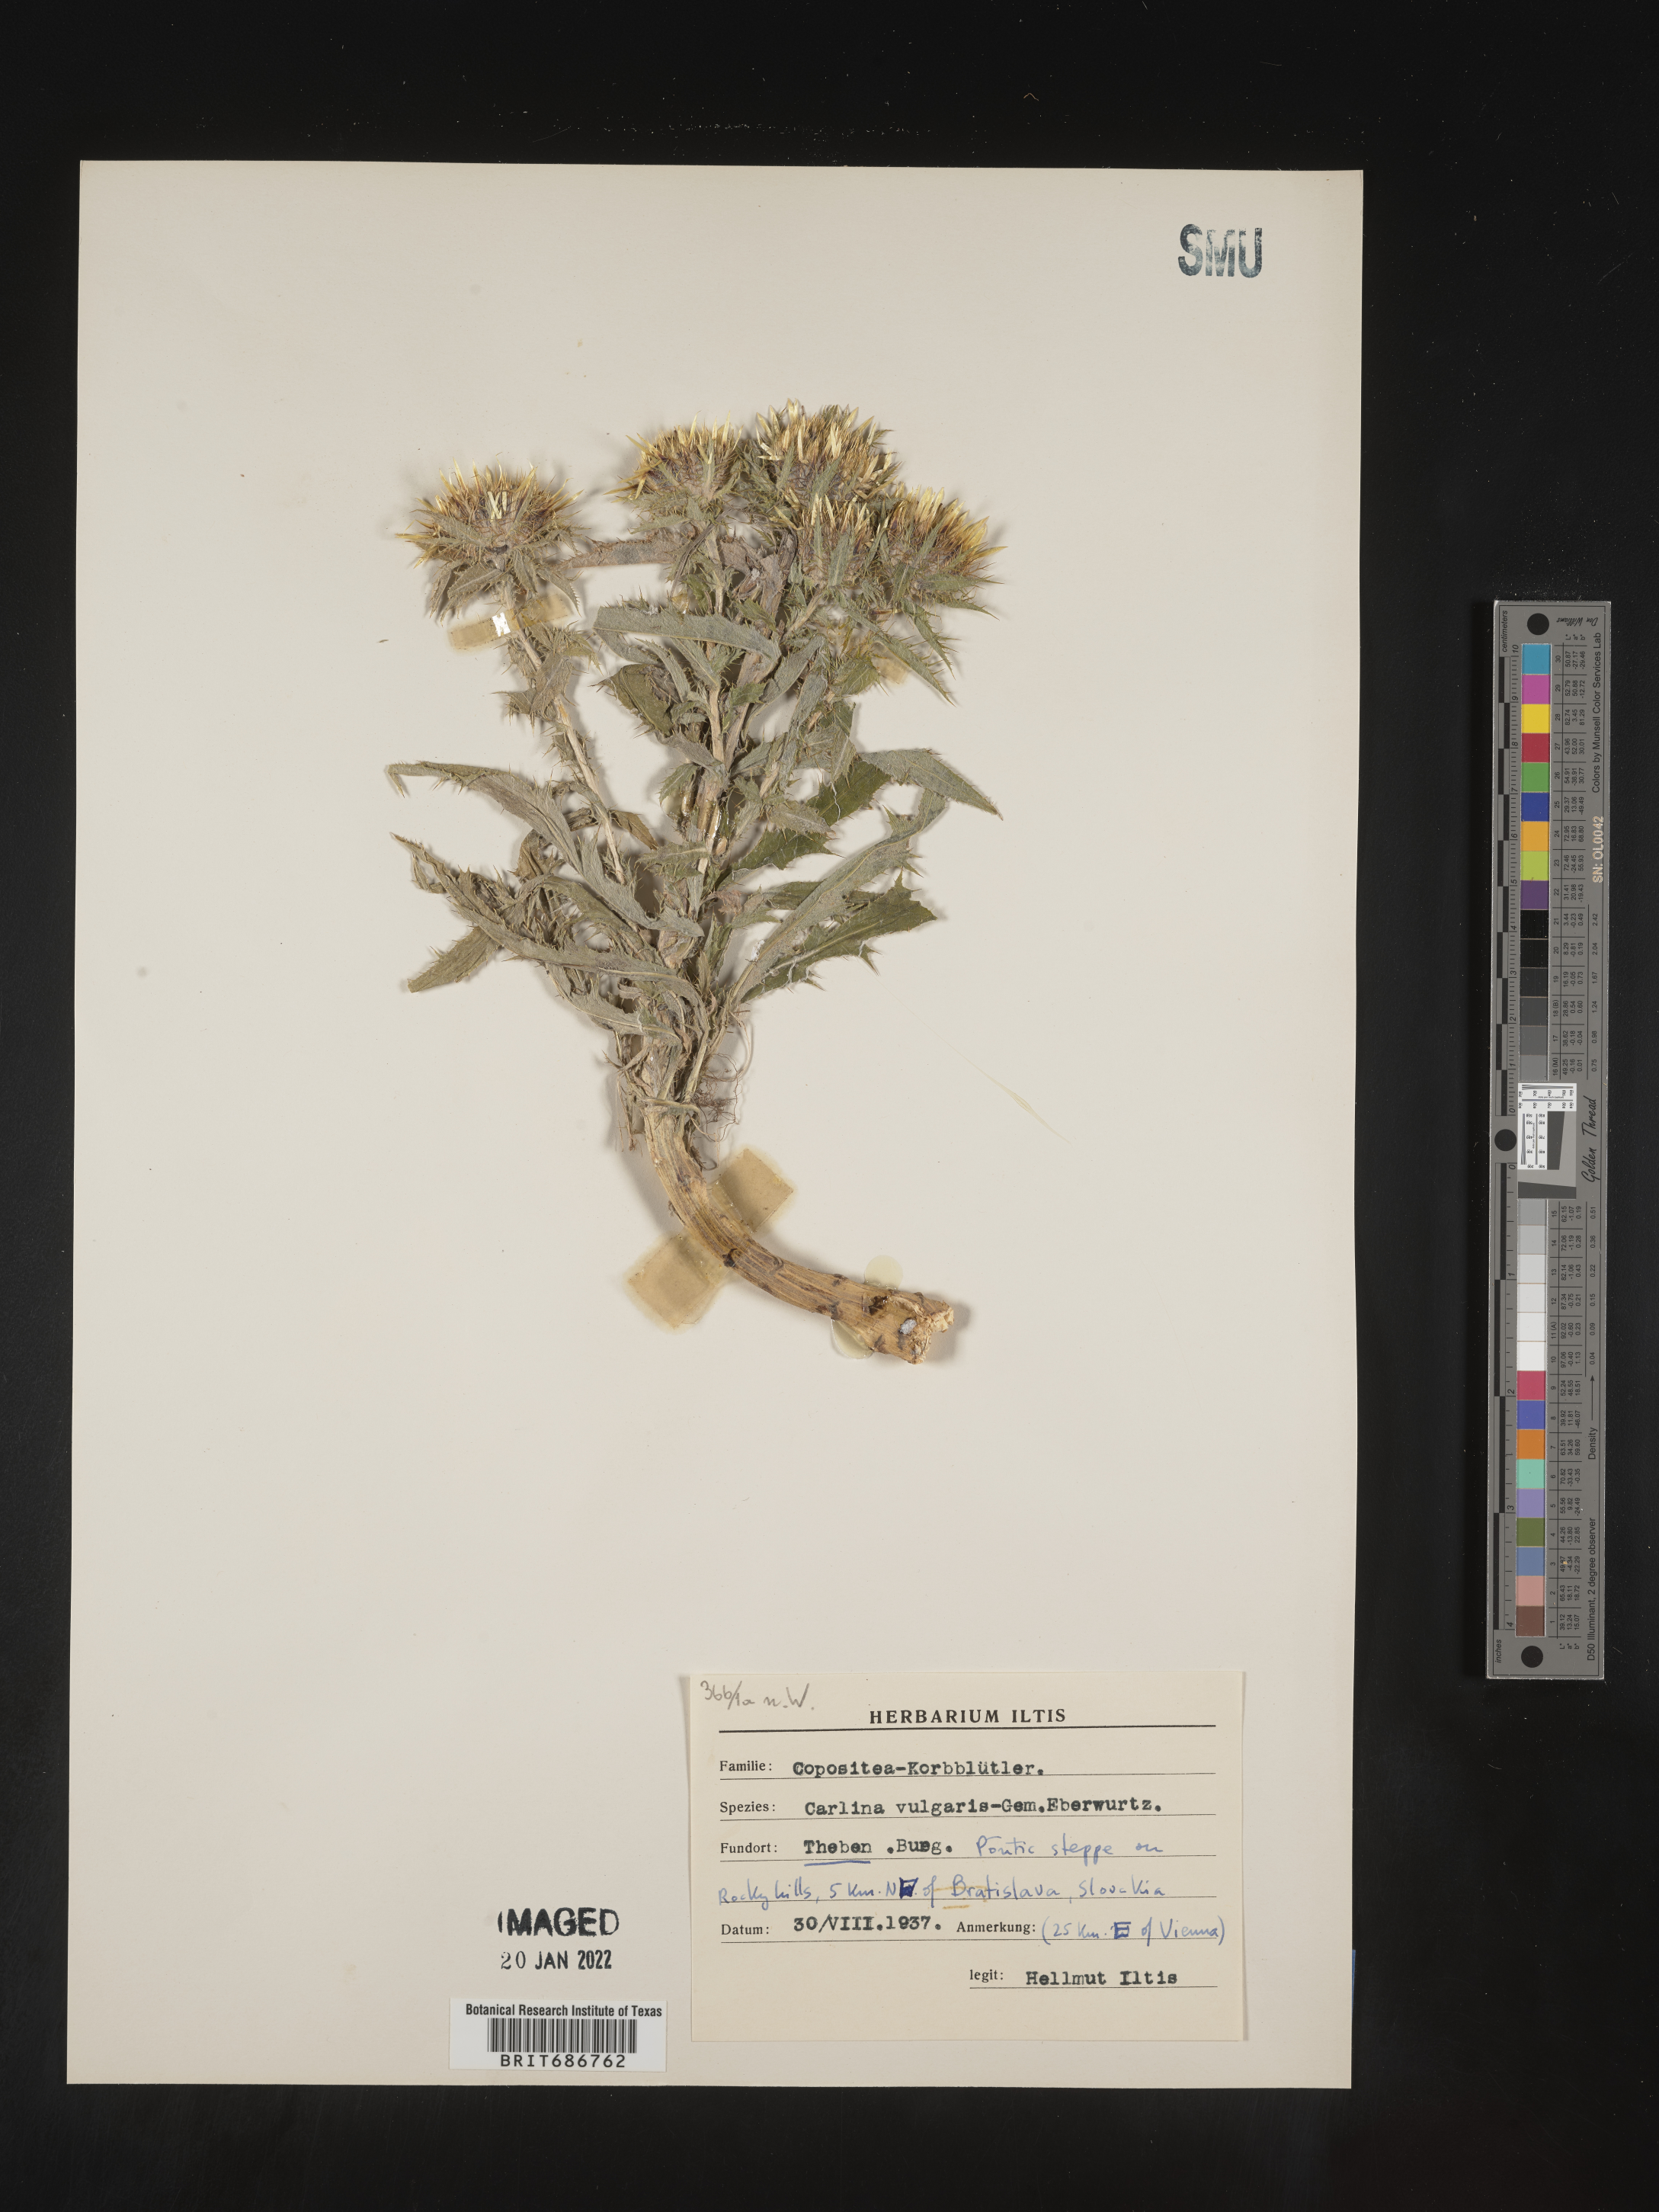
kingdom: Plantae
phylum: Tracheophyta
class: Magnoliopsida
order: Asterales
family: Asteraceae
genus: Carlina
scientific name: Carlina
